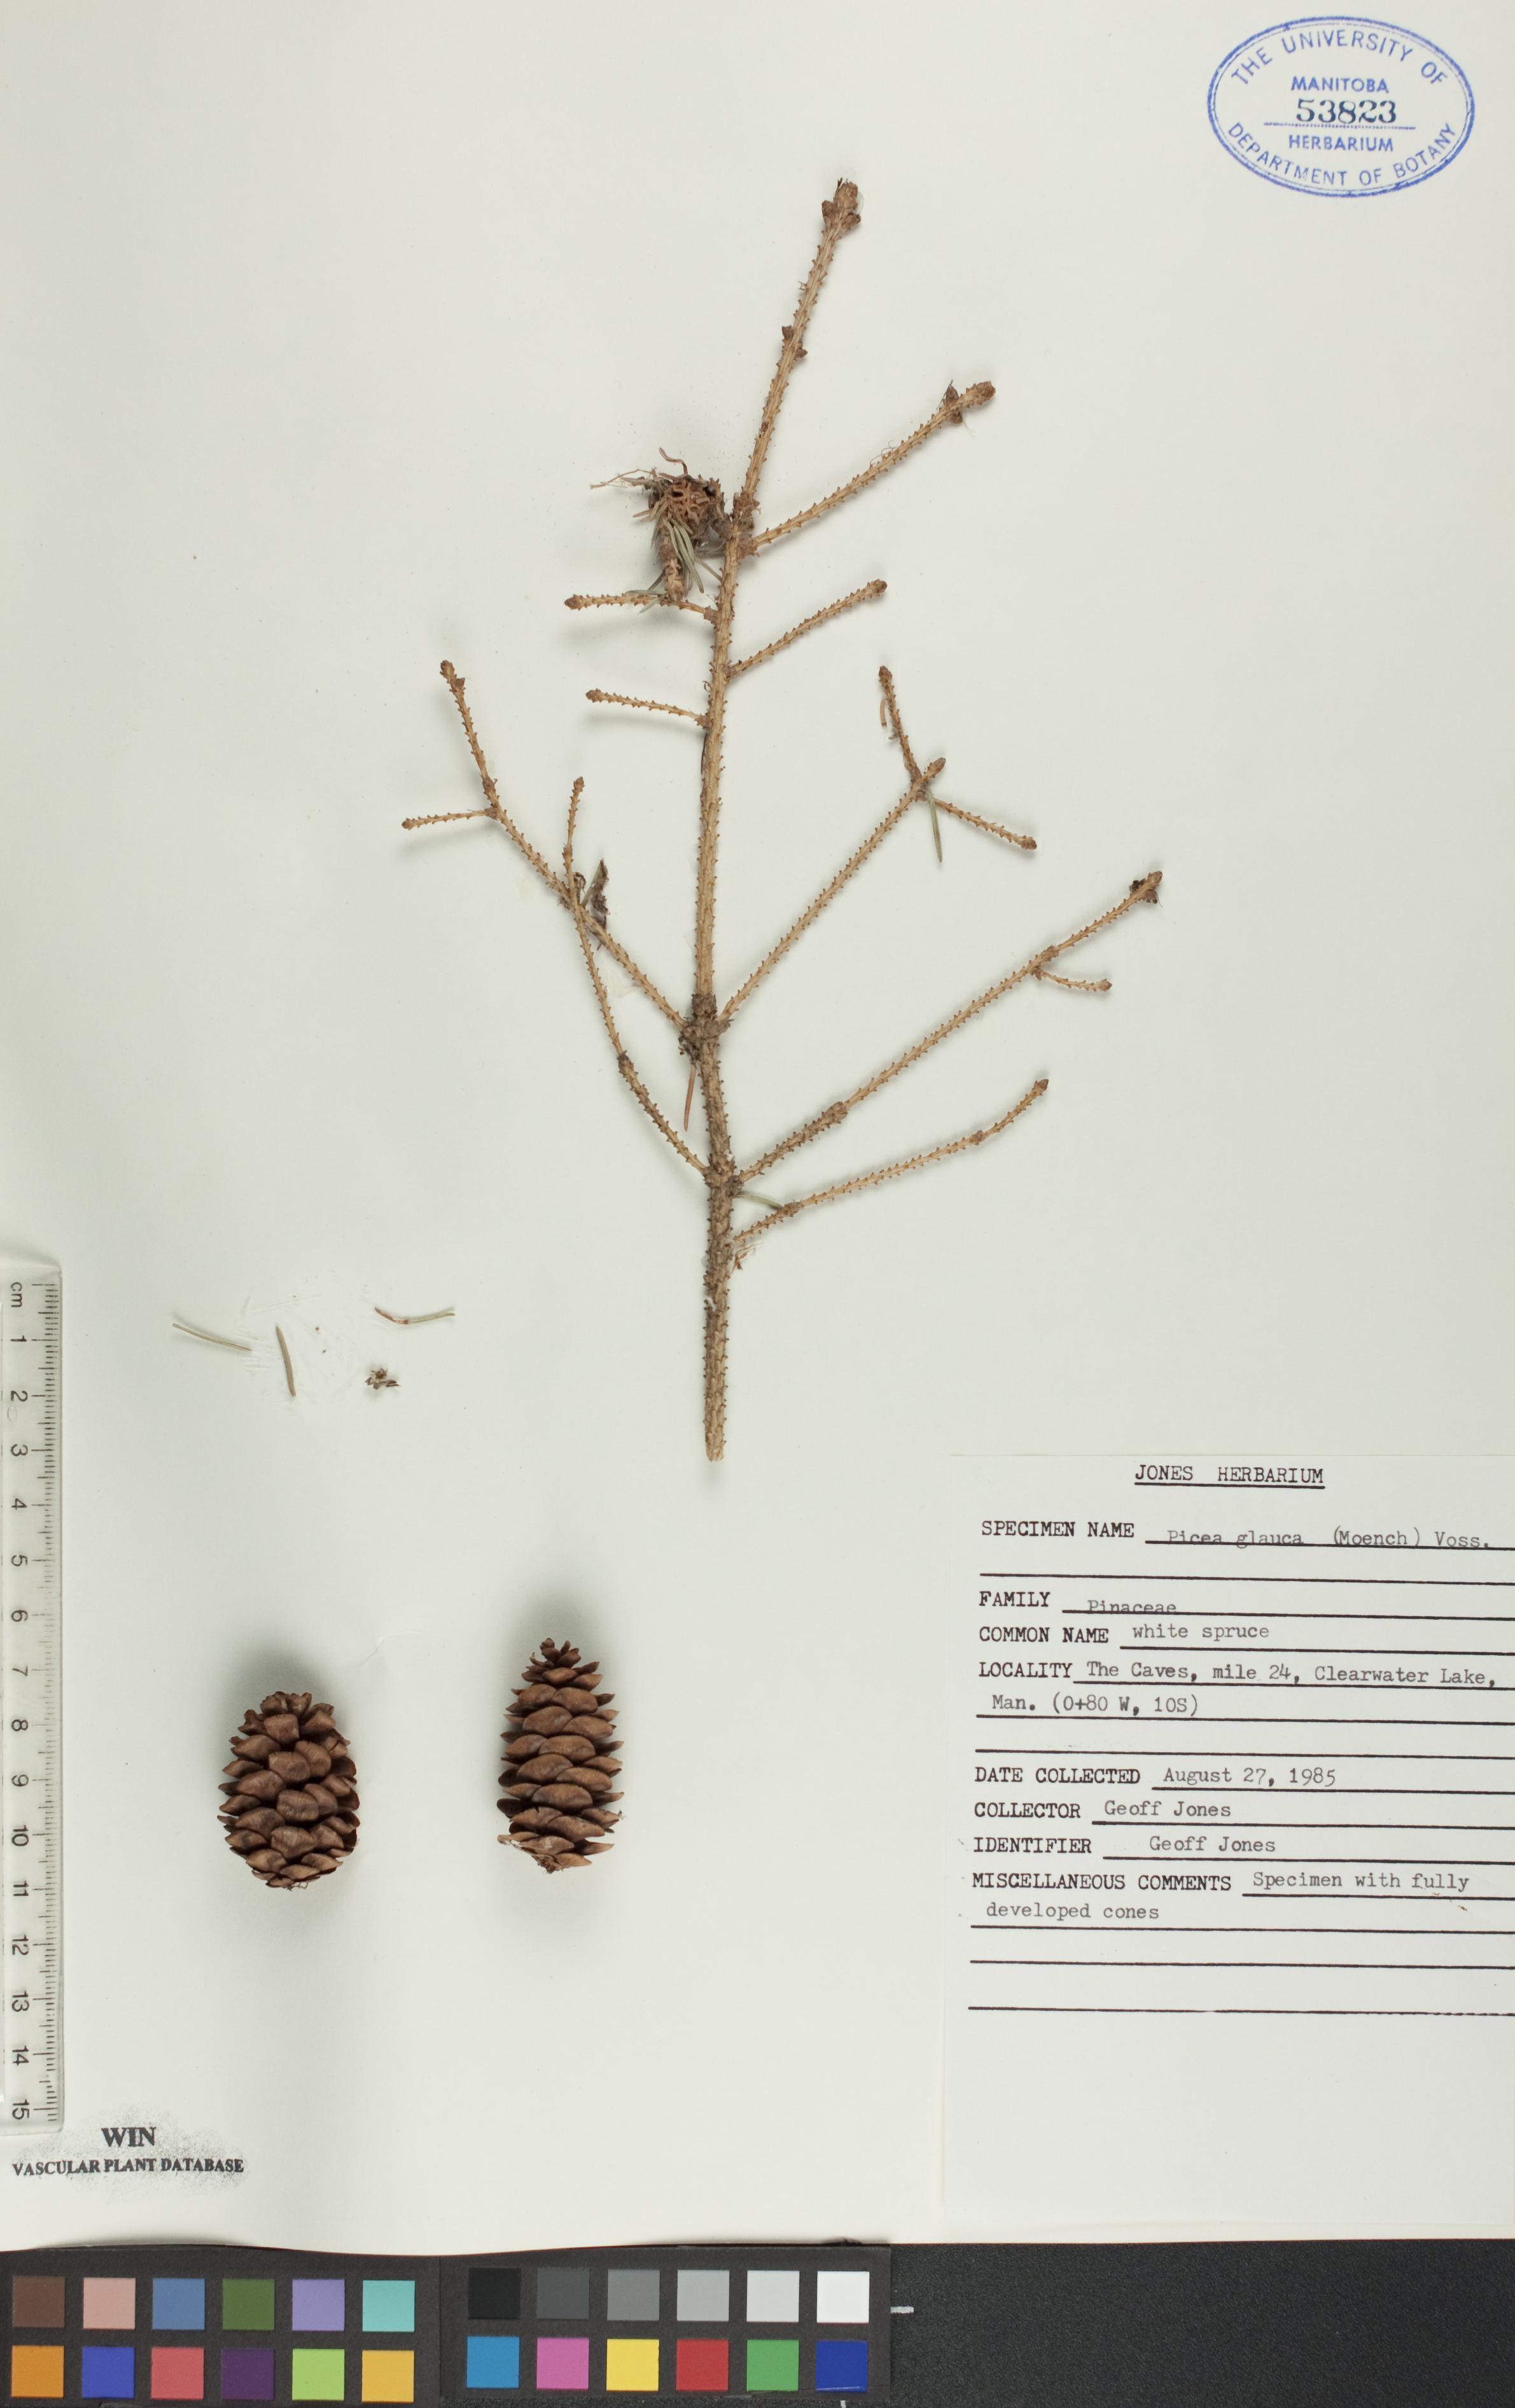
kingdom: Plantae
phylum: Tracheophyta
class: Pinopsida
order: Pinales
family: Pinaceae
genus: Picea
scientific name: Picea glauca
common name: White spruce
